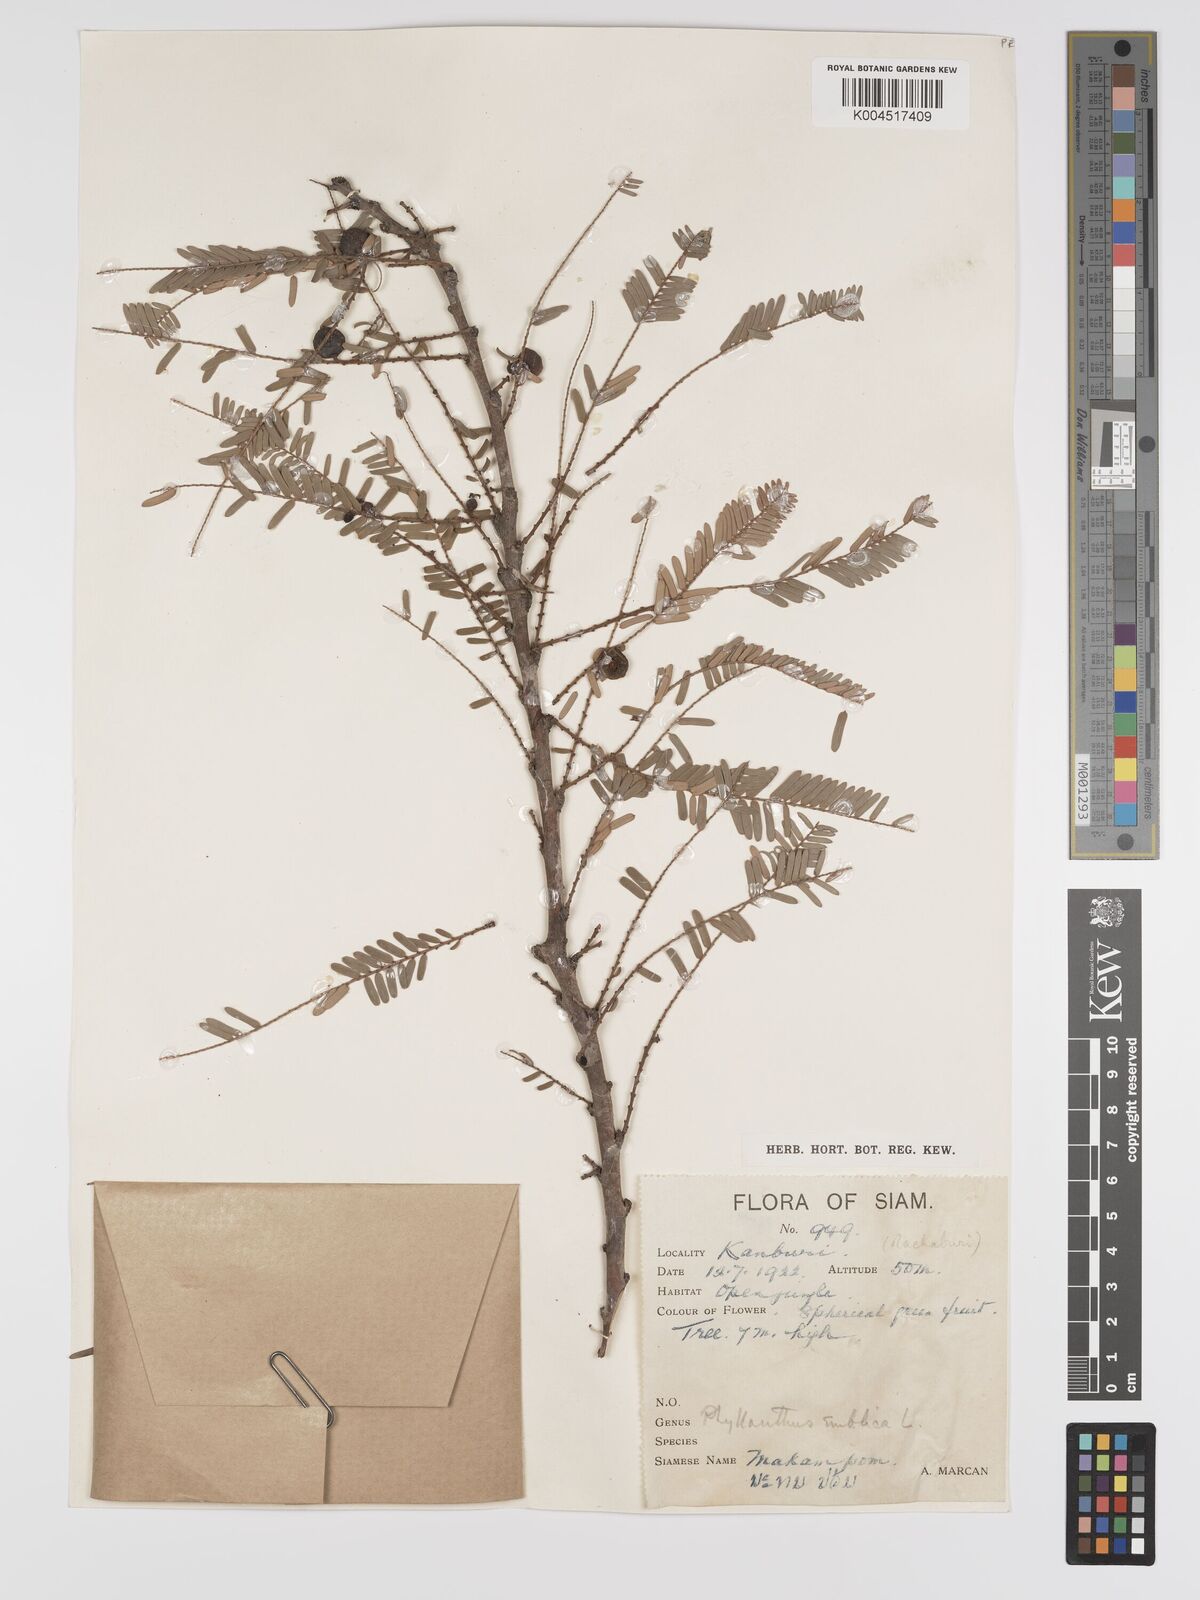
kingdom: Plantae
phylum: Tracheophyta
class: Magnoliopsida
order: Malpighiales
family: Phyllanthaceae
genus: Phyllanthus
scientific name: Phyllanthus emblica
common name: Indian gooseberry
